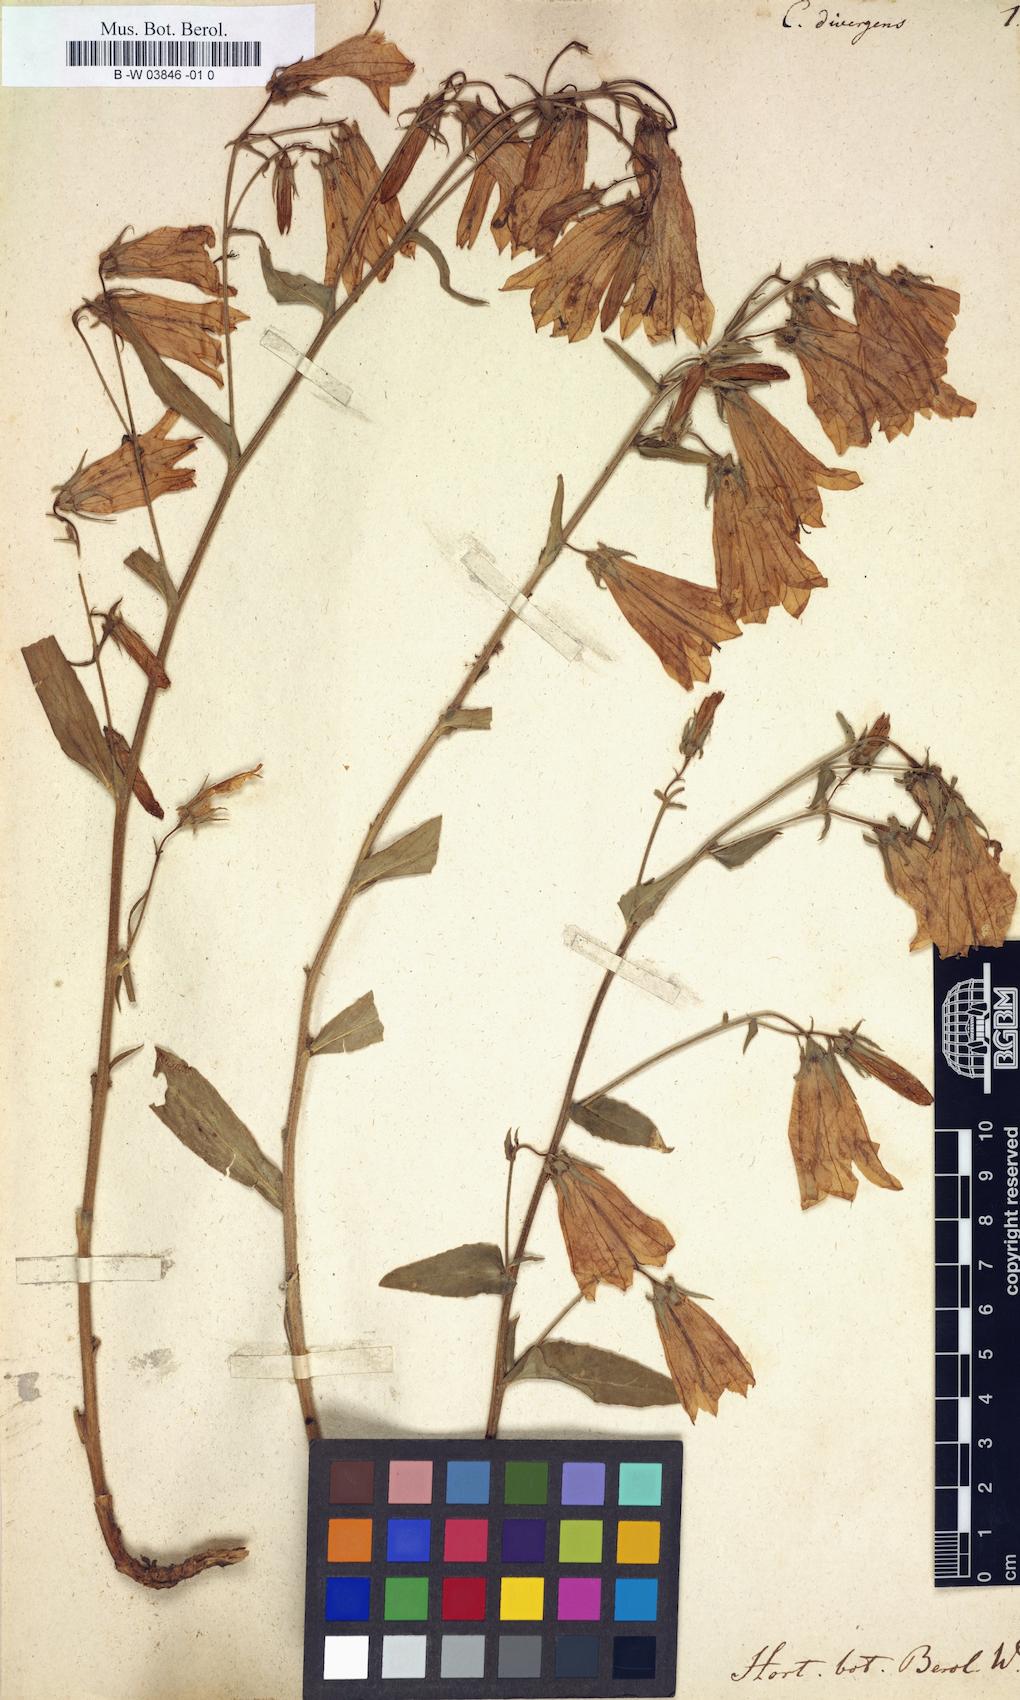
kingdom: Plantae
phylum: Tracheophyta
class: Magnoliopsida
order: Asterales
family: Campanulaceae
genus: Campanula
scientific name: Campanula sibirica
